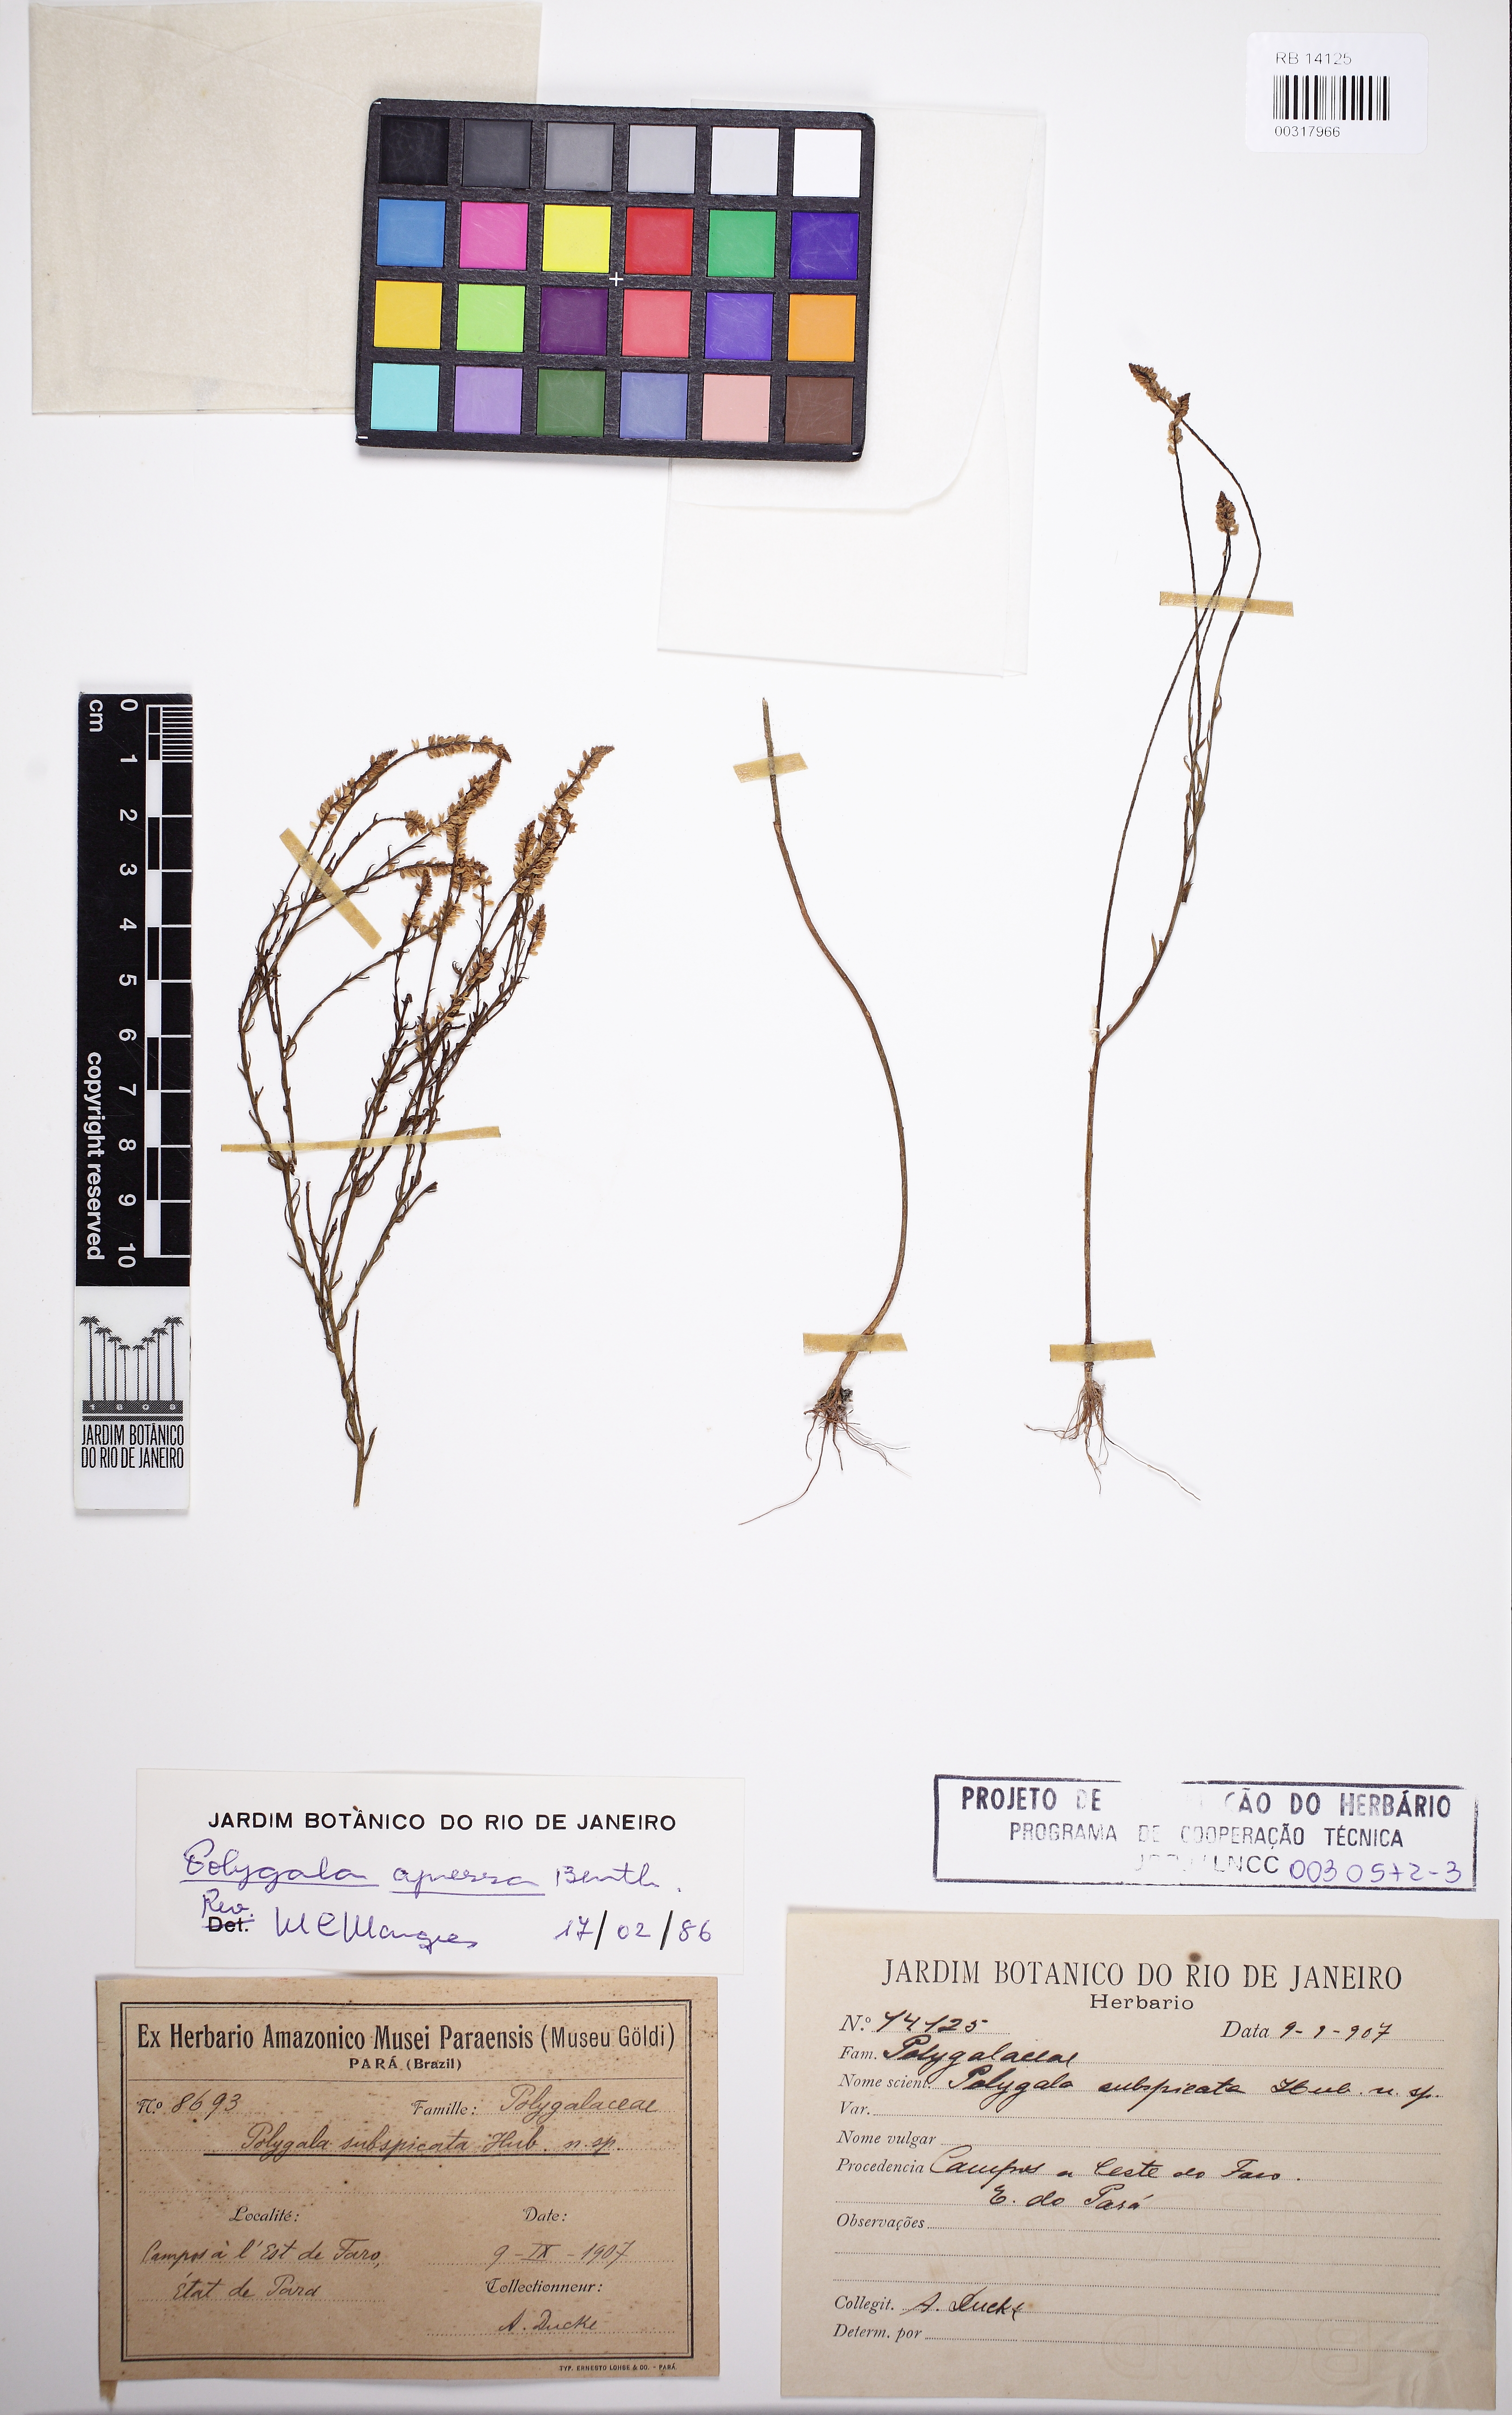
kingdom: Plantae
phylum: Tracheophyta
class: Magnoliopsida
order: Fabales
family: Polygalaceae
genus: Polygala
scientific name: Polygala appressa
